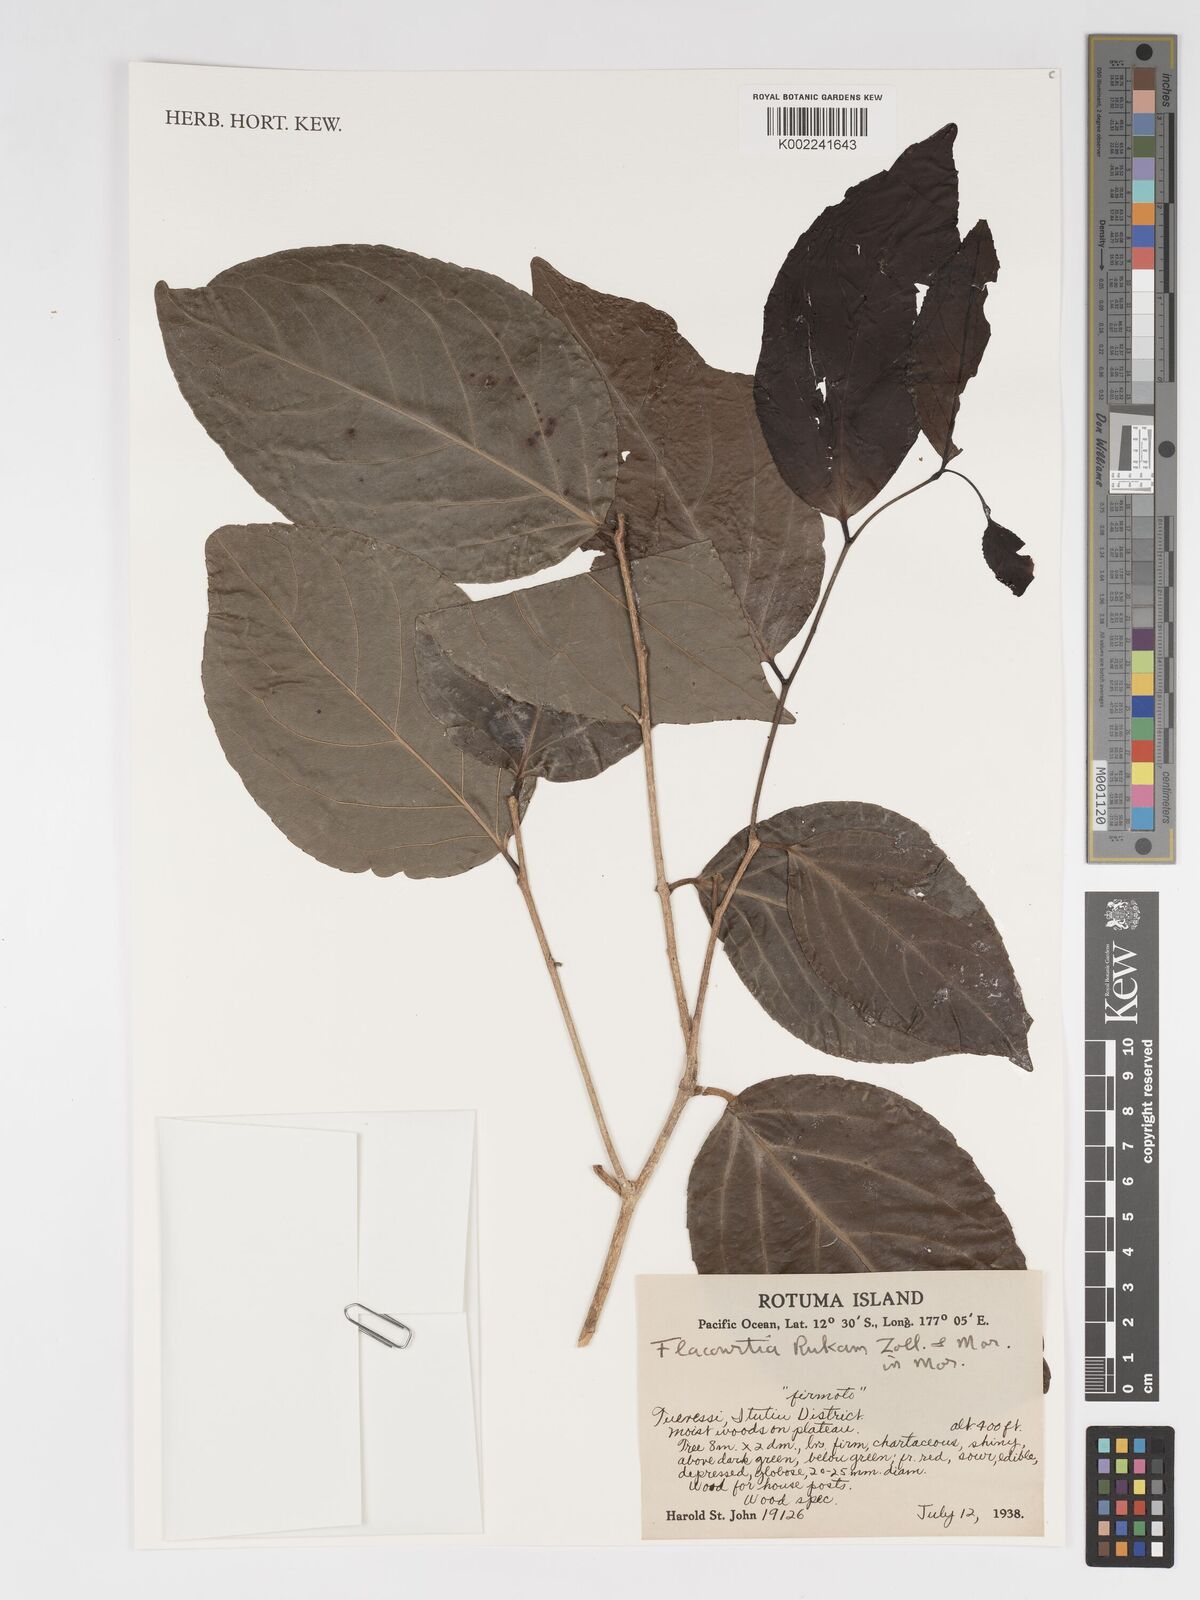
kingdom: Plantae
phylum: Tracheophyta
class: Magnoliopsida
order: Malpighiales
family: Salicaceae
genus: Flacourtia
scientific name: Flacourtia rukam
